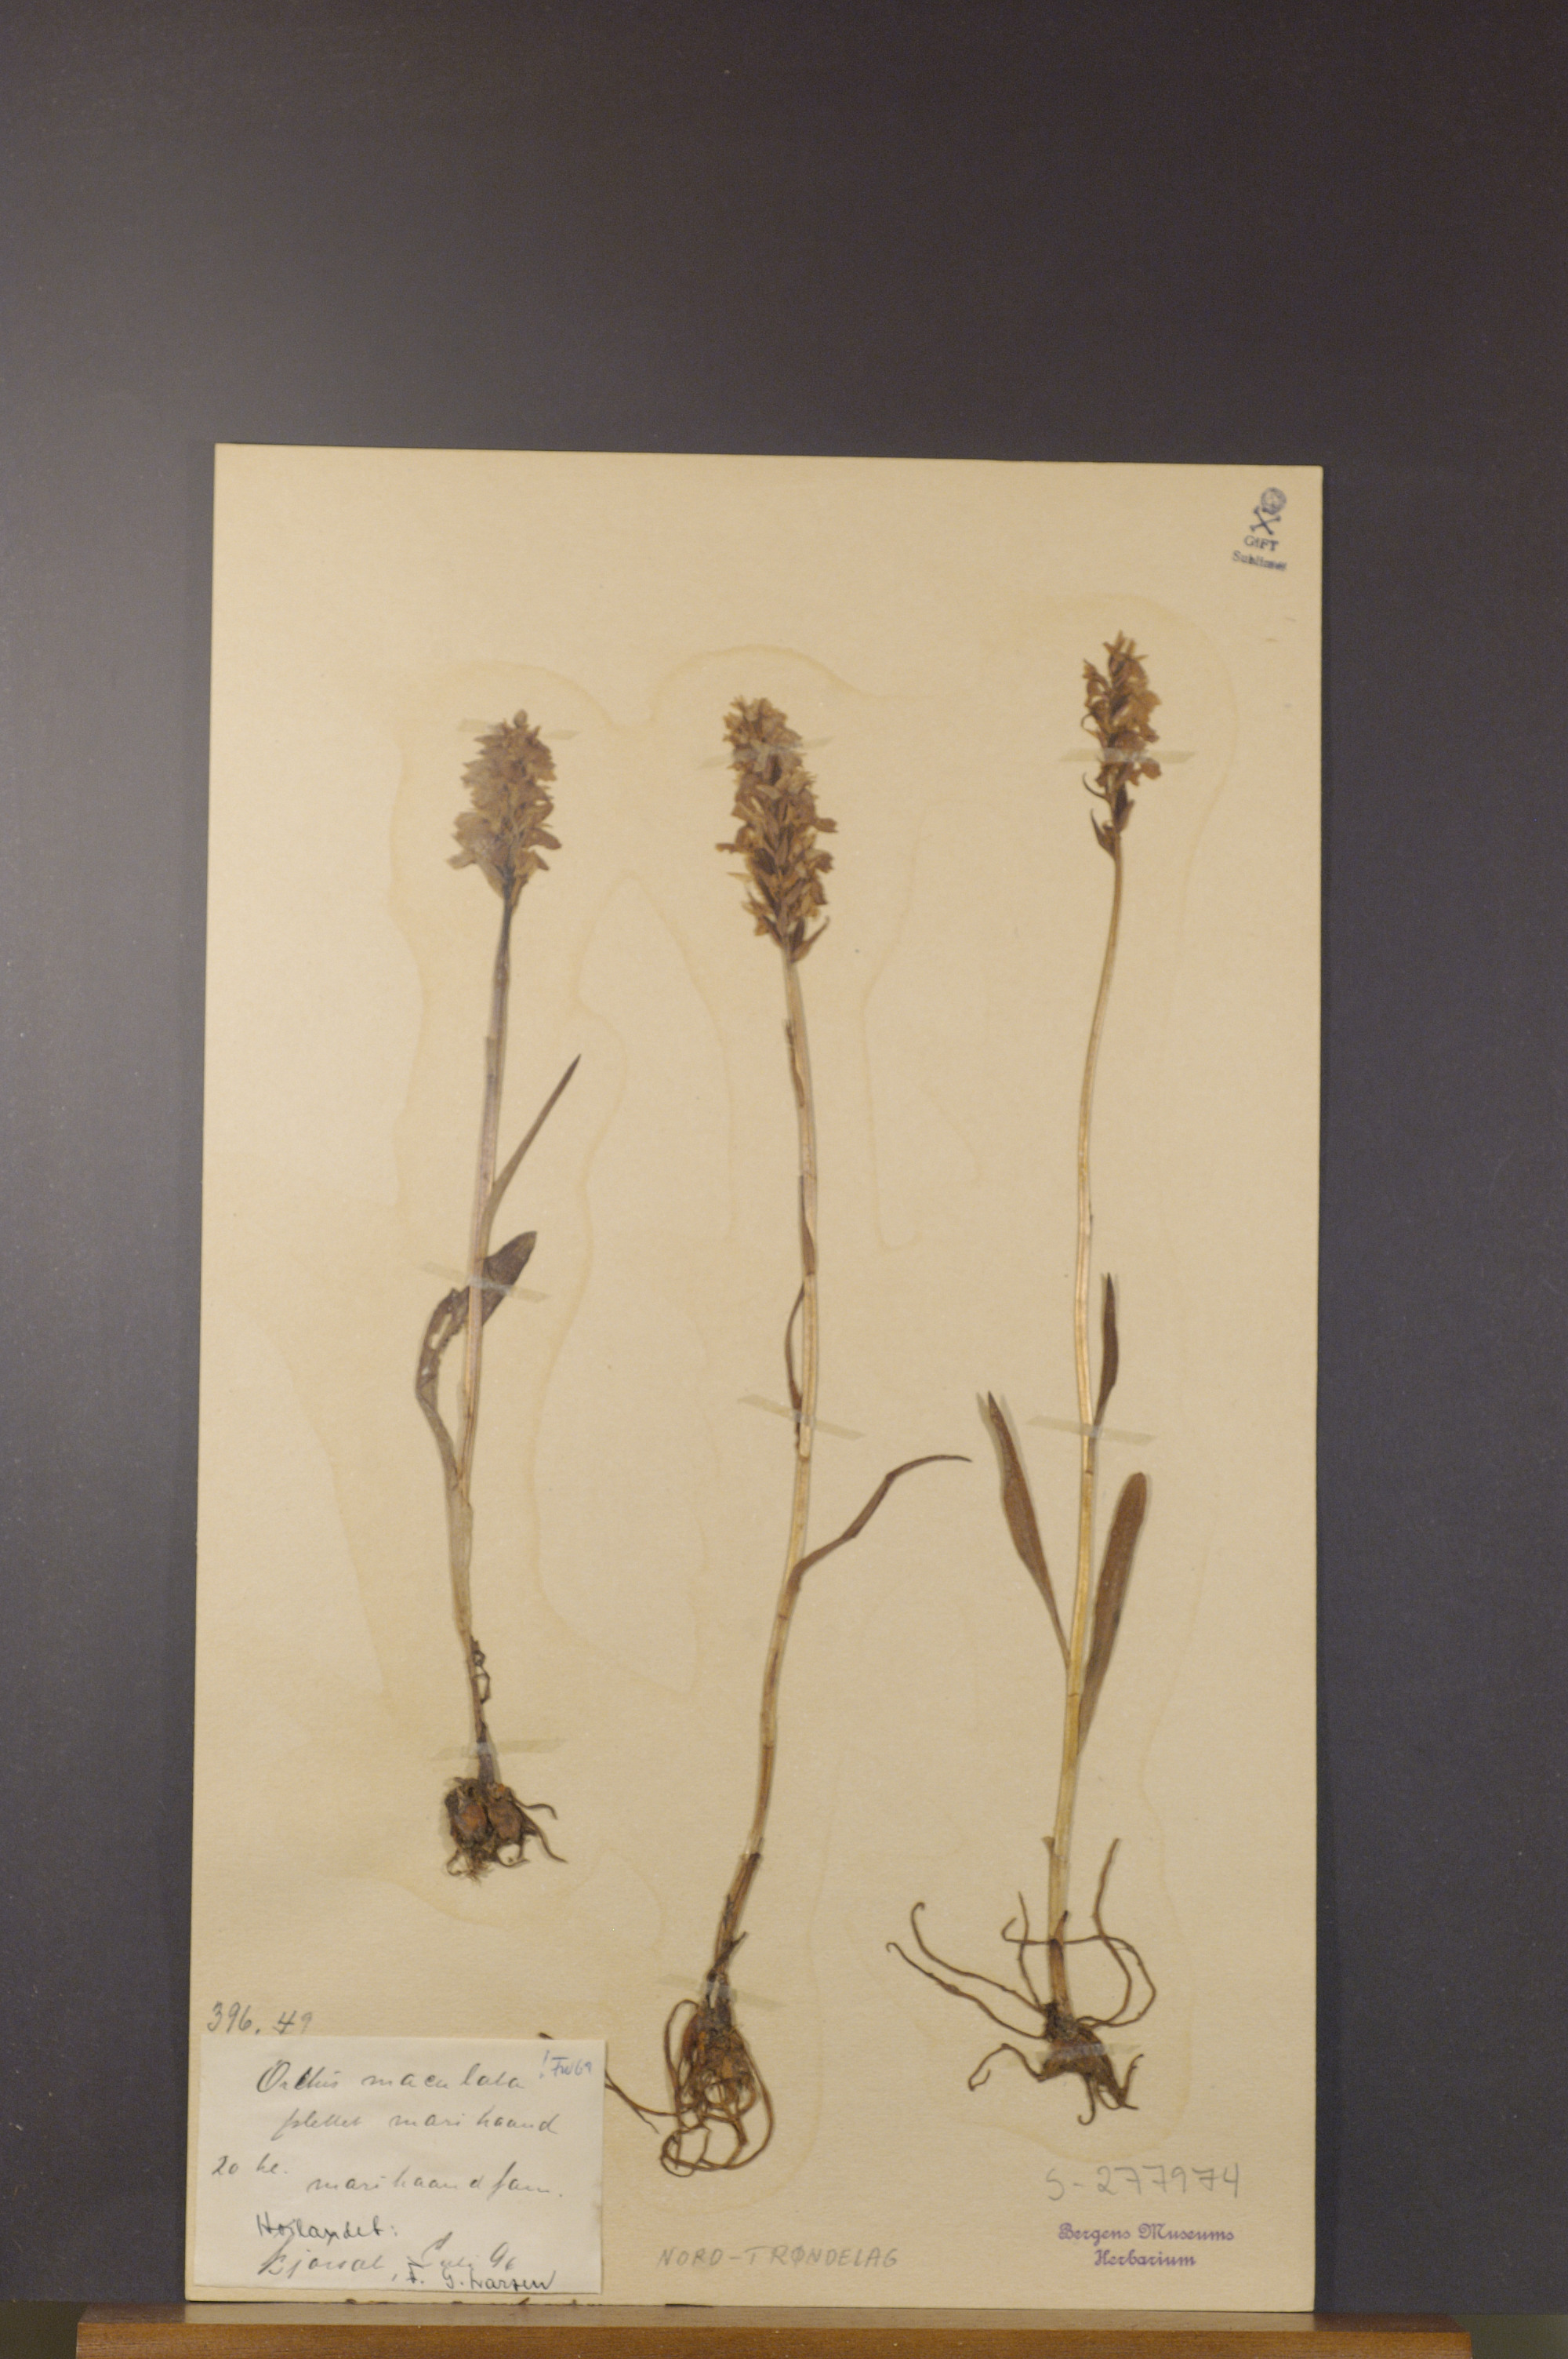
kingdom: Plantae
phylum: Tracheophyta
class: Liliopsida
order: Asparagales
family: Orchidaceae
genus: Dactylorhiza
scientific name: Dactylorhiza maculata
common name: Heath spotted-orchid
